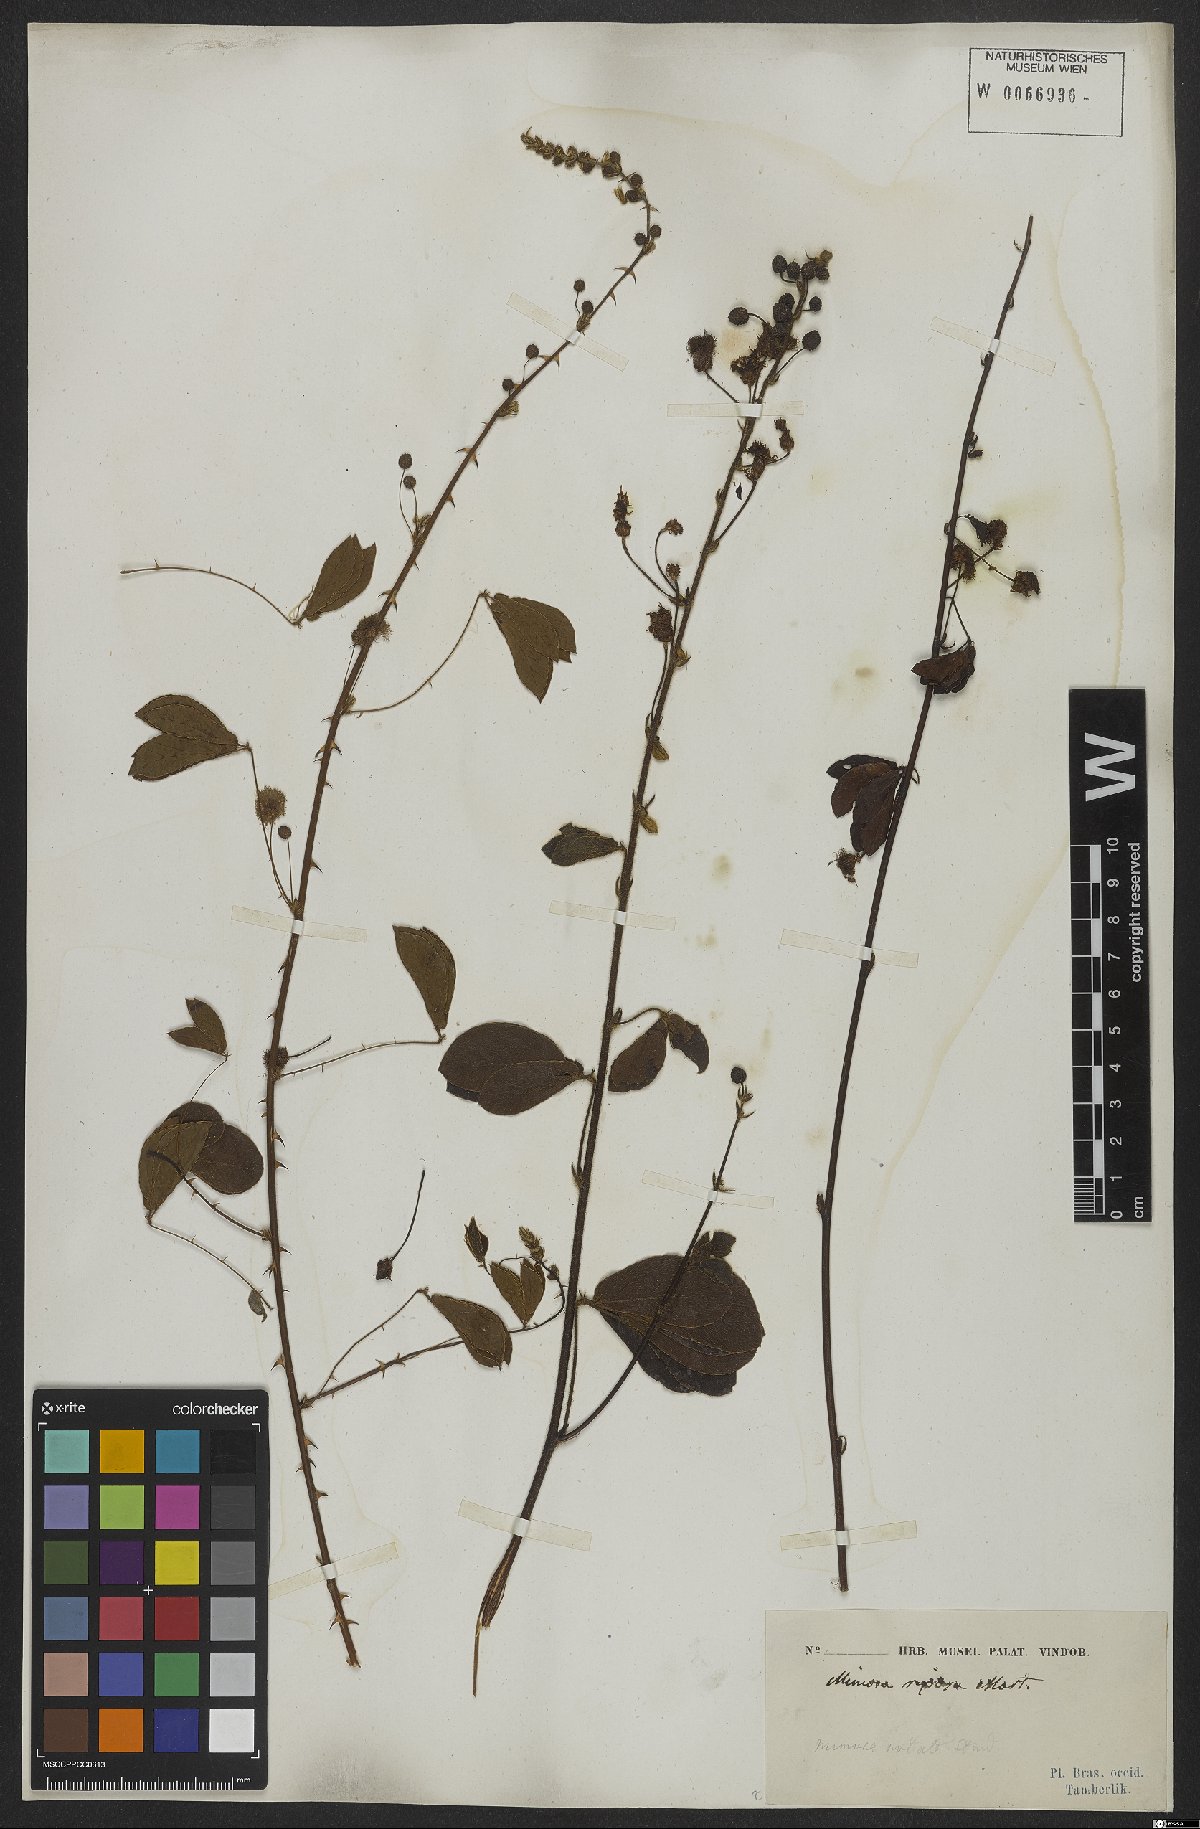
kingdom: Plantae
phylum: Tracheophyta
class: Magnoliopsida
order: Fabales
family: Fabaceae
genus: Mimosa
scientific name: Mimosa debilis
